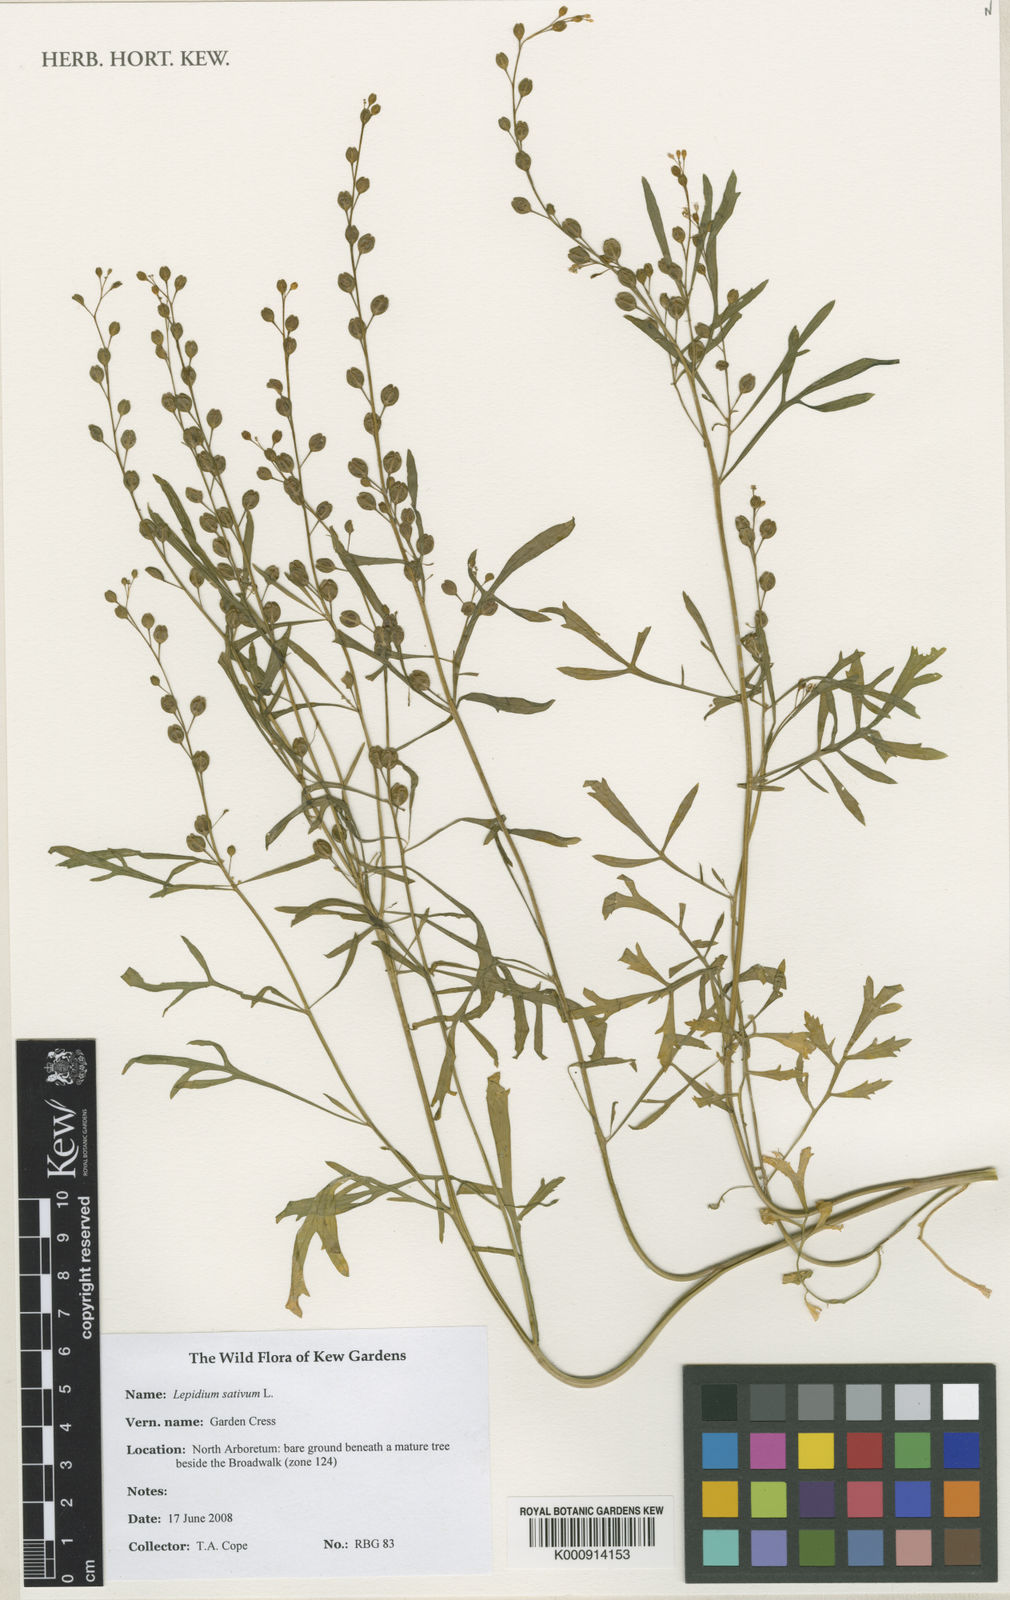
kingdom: Plantae
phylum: Tracheophyta
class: Magnoliopsida
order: Brassicales
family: Brassicaceae
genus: Lepidium
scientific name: Lepidium sativum
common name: Garden cress
